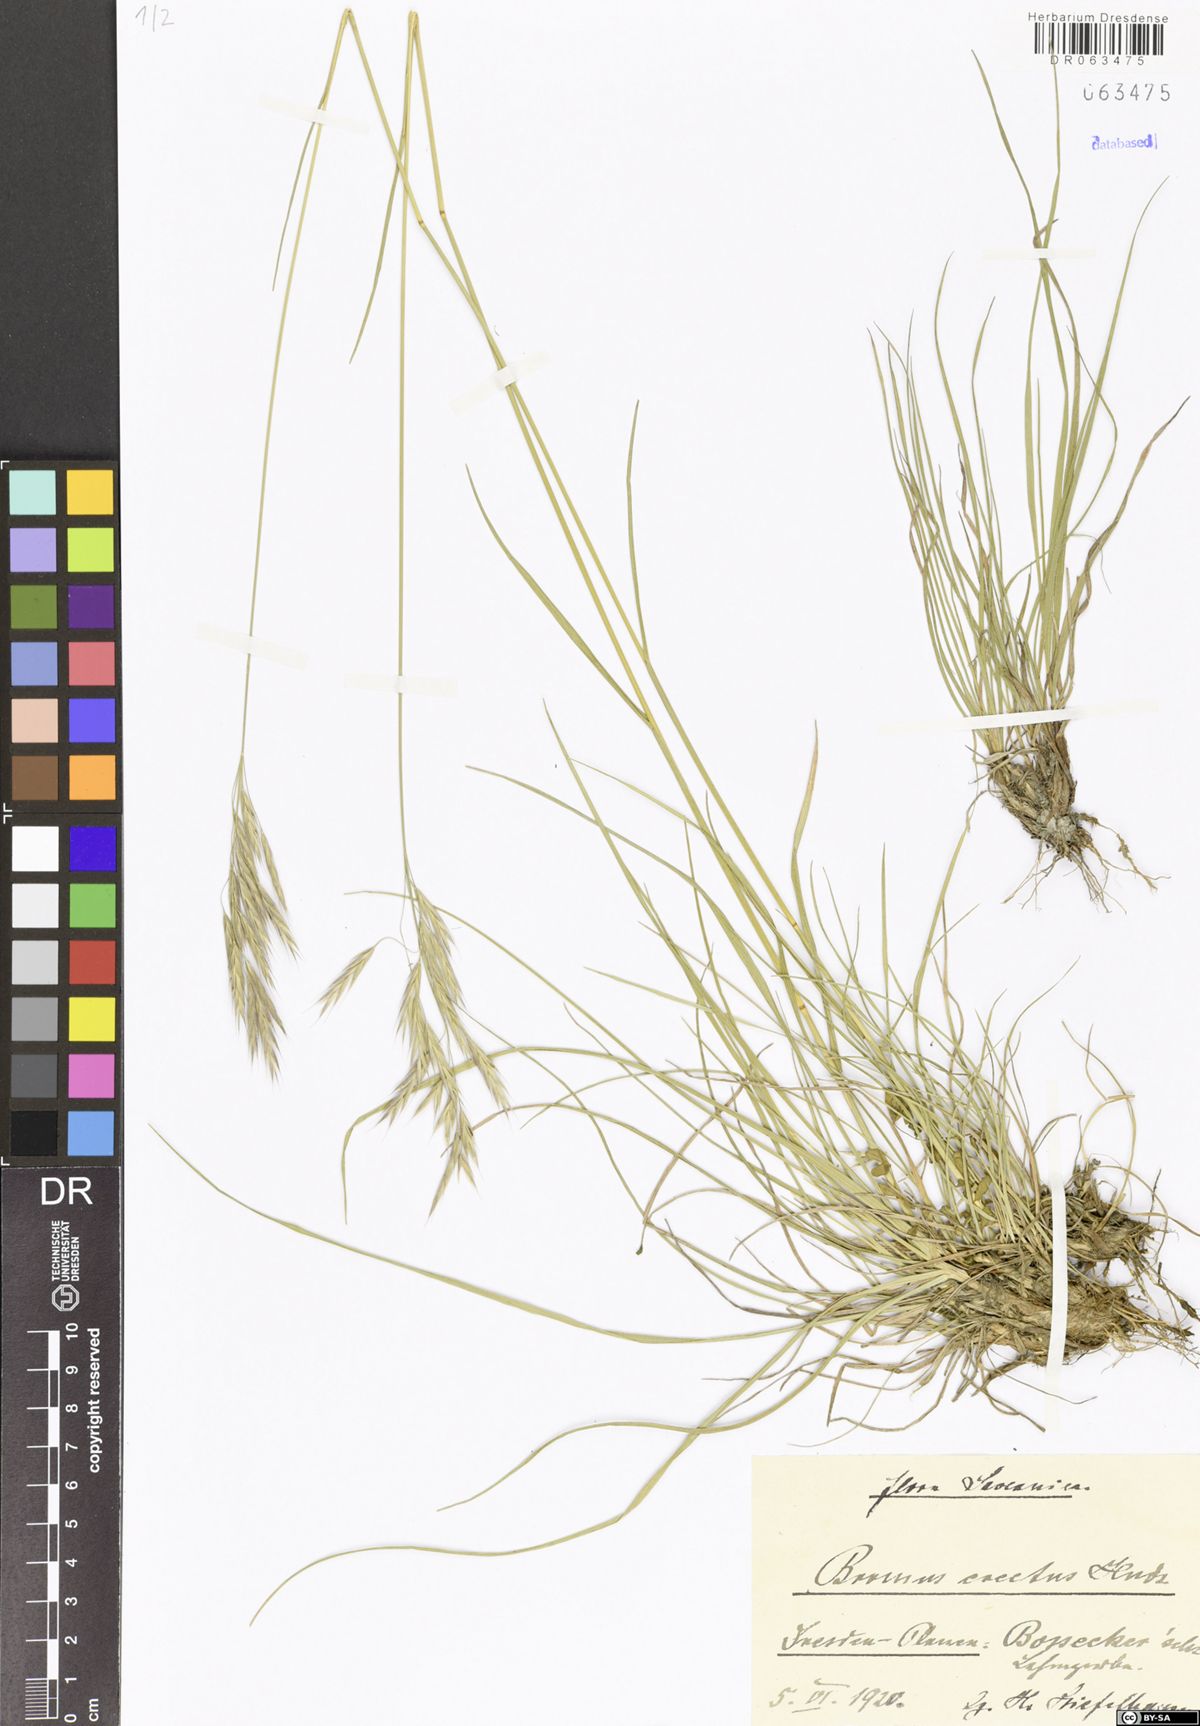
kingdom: Plantae
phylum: Tracheophyta
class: Liliopsida
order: Poales
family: Poaceae
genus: Bromus
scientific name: Bromus erectus
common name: Erect brome
